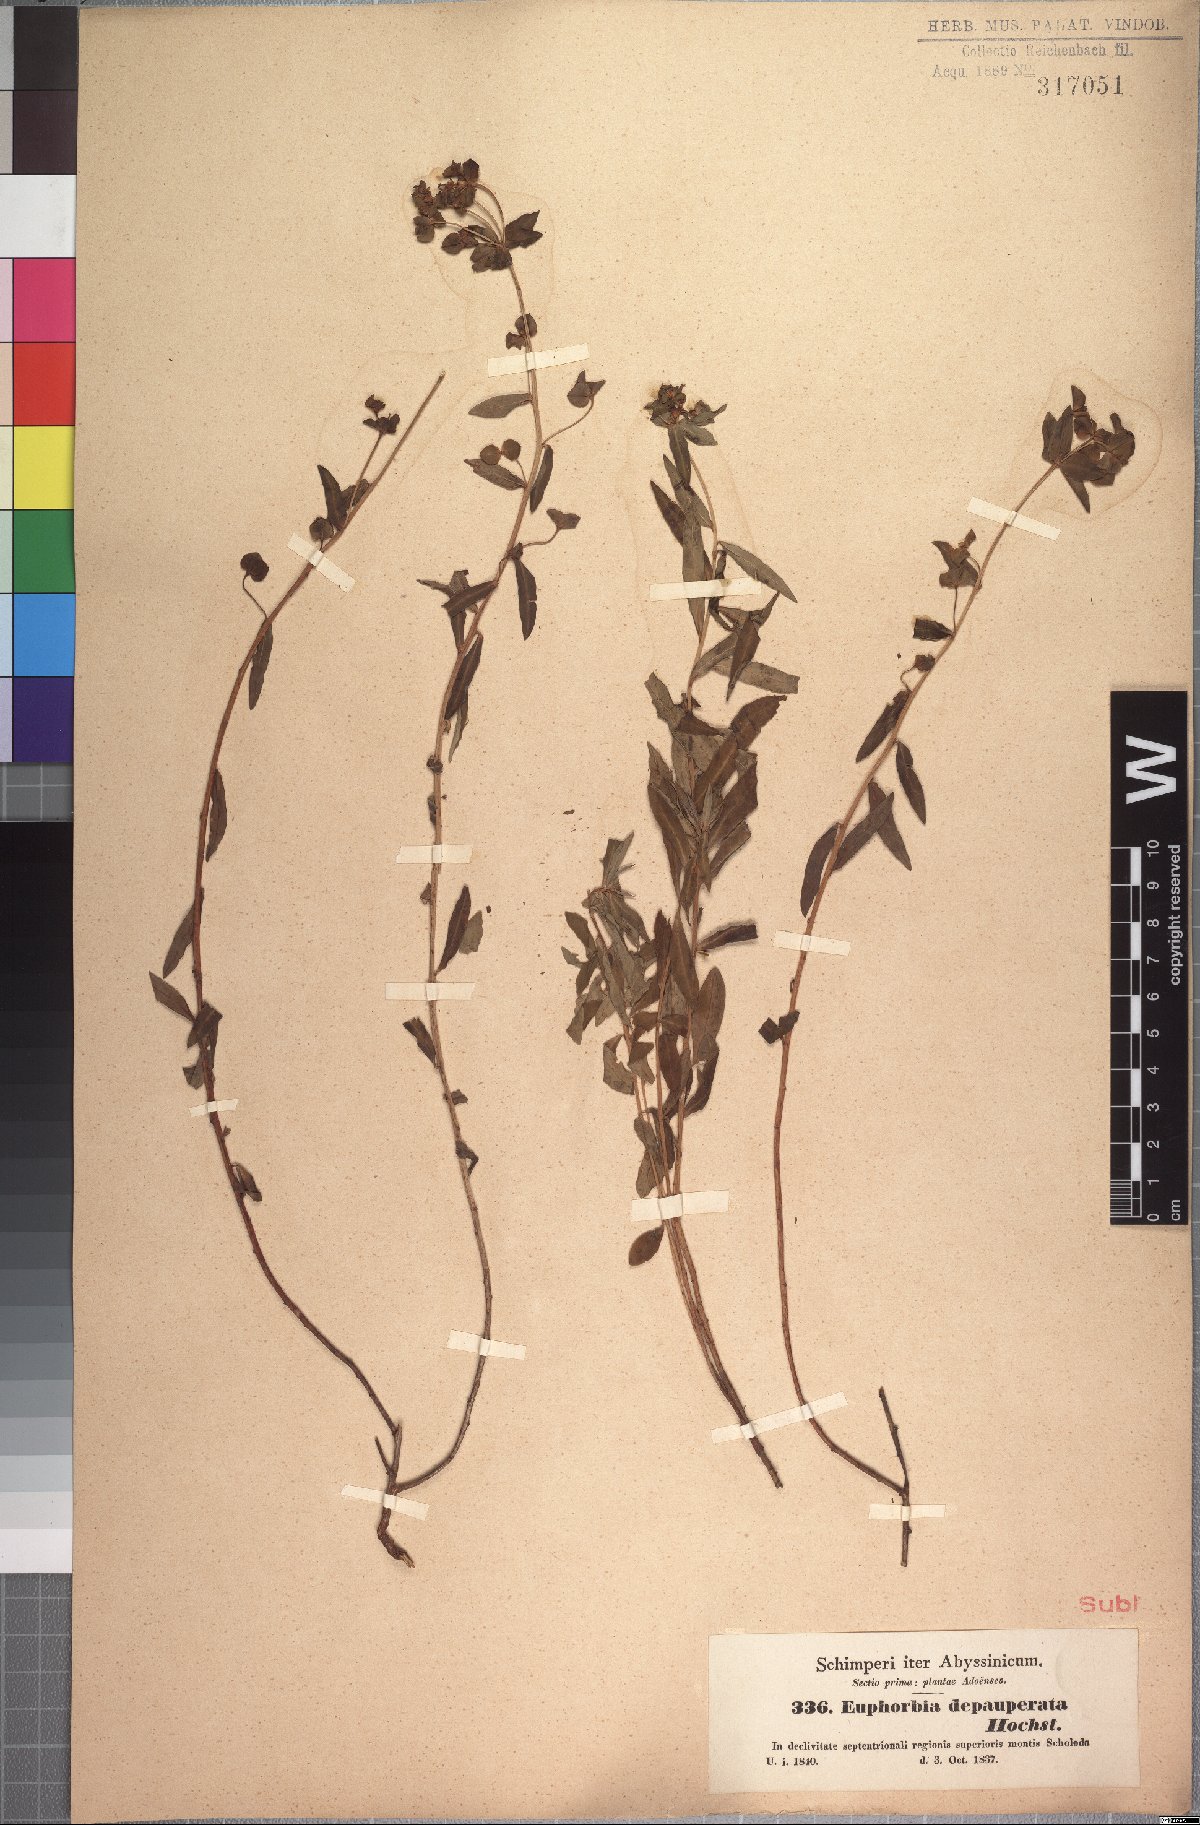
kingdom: Plantae
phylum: Tracheophyta
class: Magnoliopsida
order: Malpighiales
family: Euphorbiaceae
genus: Euphorbia
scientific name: Euphorbia depauperata
